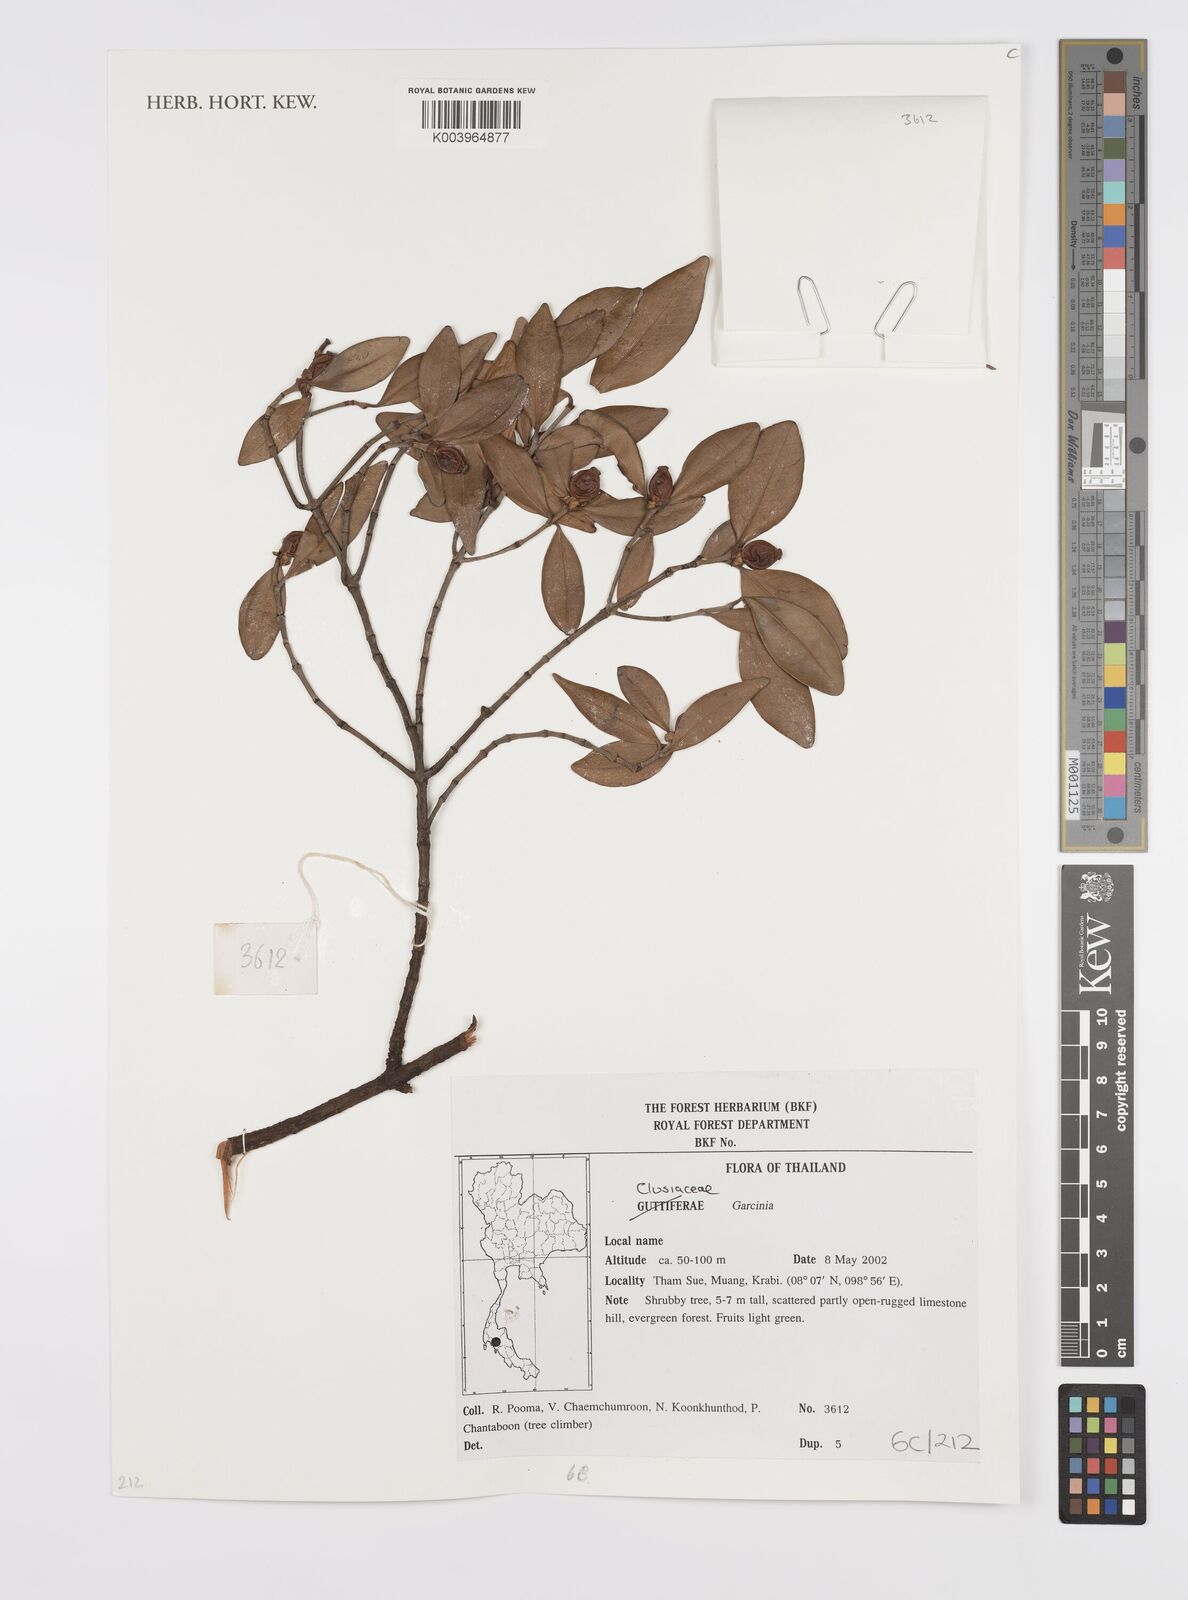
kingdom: Plantae
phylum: Tracheophyta
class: Magnoliopsida
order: Malpighiales
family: Clusiaceae
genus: Garcinia
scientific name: Garcinia
